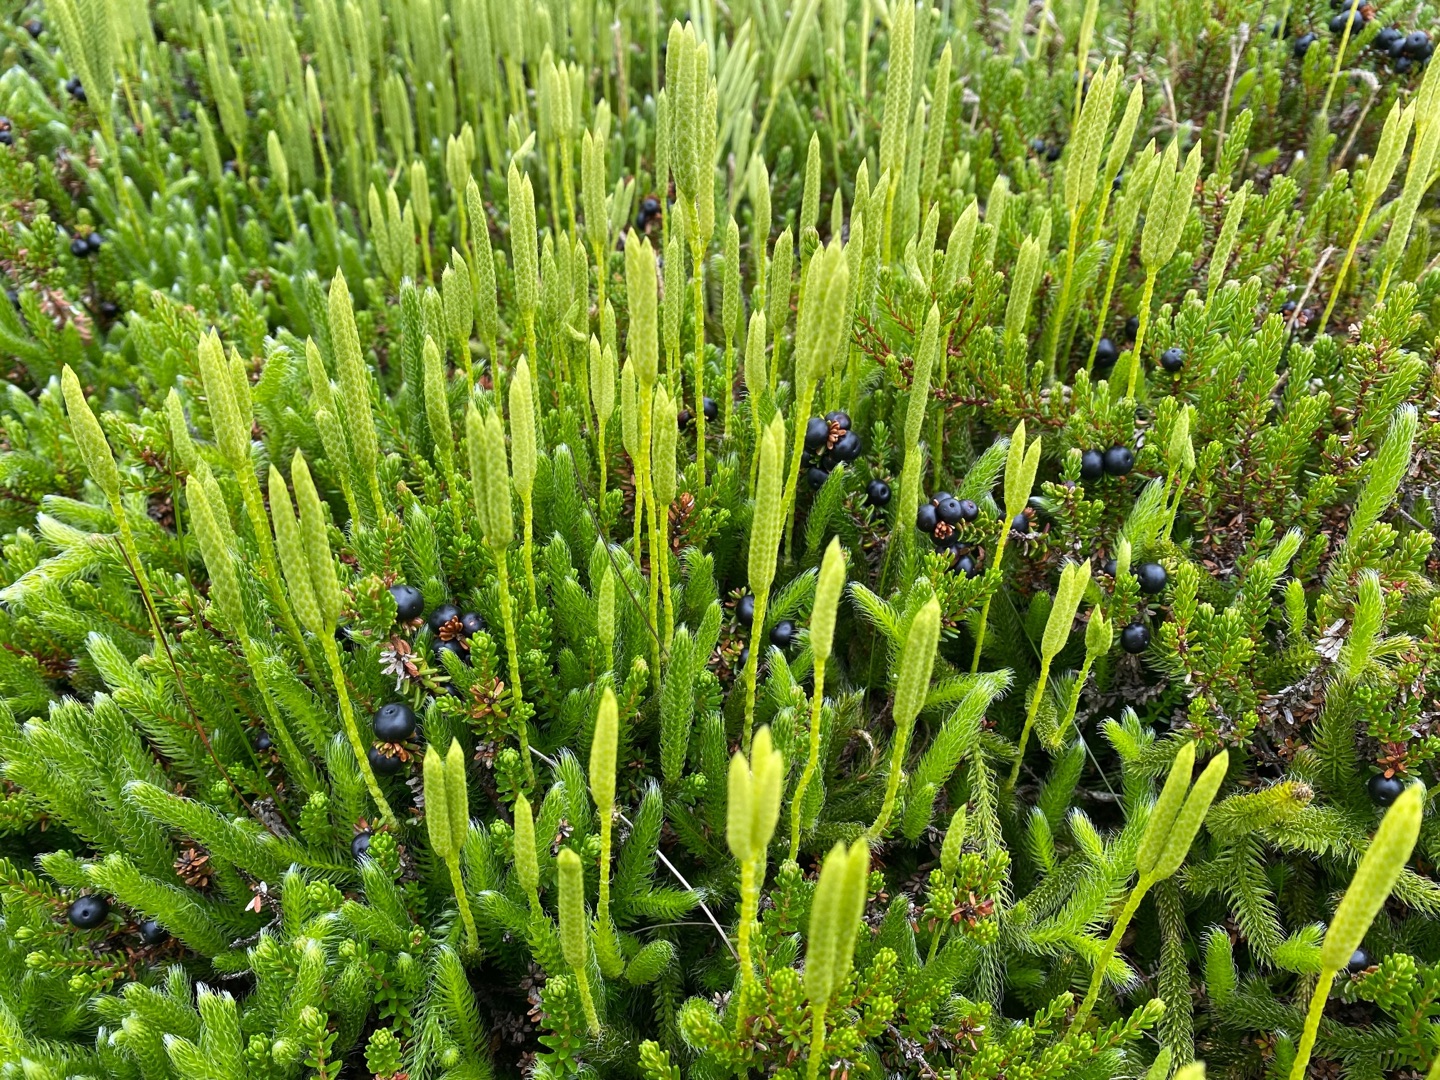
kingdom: Plantae
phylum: Tracheophyta
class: Lycopodiopsida
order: Lycopodiales
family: Lycopodiaceae
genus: Lycopodium
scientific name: Lycopodium clavatum
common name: Almindelig ulvefod
